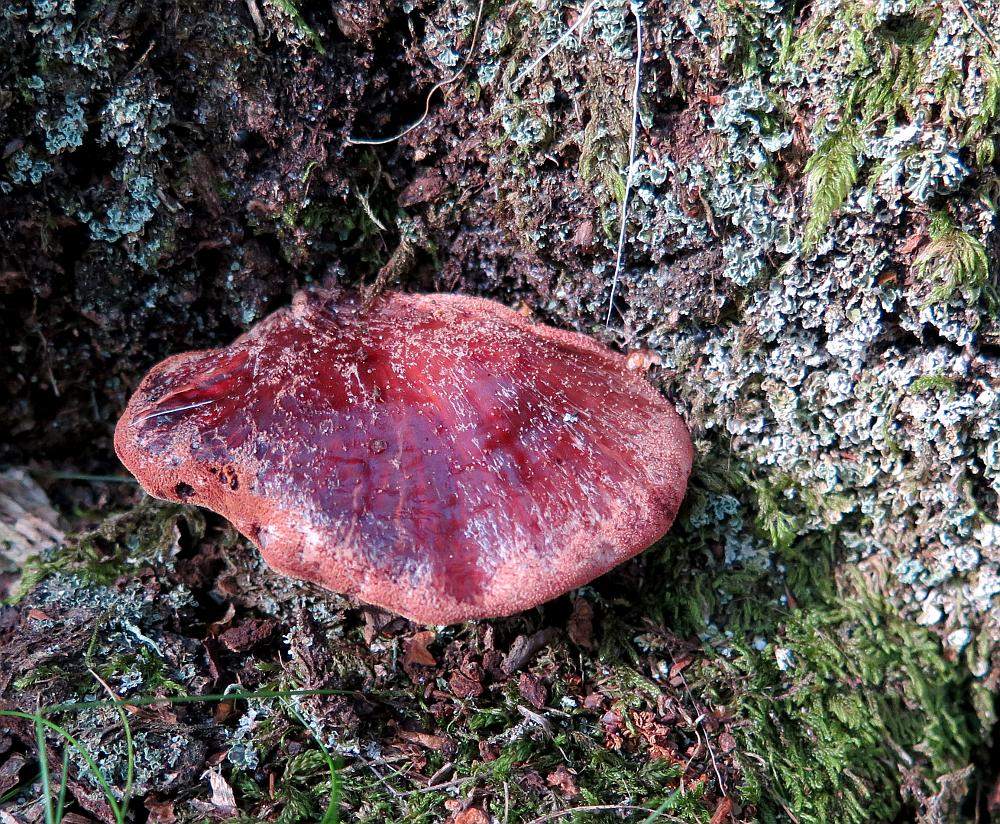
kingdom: Fungi
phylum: Basidiomycota
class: Agaricomycetes
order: Agaricales
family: Fistulinaceae
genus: Fistulina
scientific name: Fistulina hepatica
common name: oksetunge
